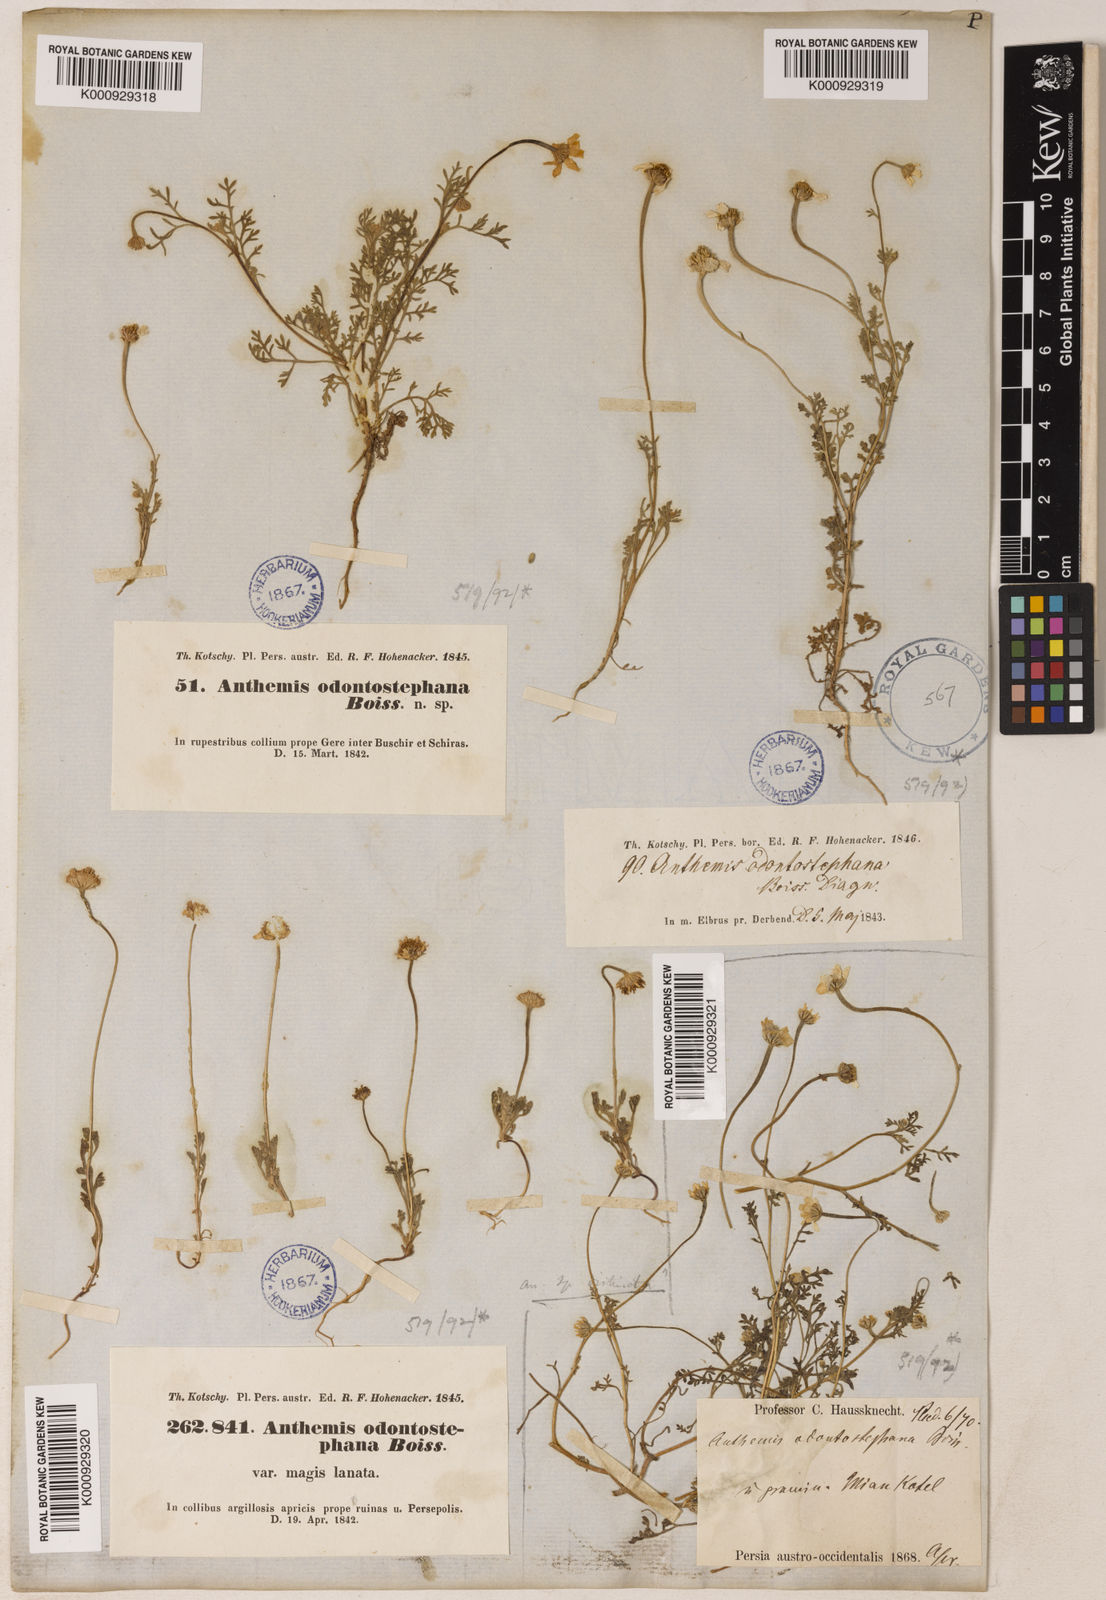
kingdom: Plantae
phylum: Tracheophyta
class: Magnoliopsida
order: Asterales
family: Asteraceae
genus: Anthemis
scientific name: Anthemis odontostephana
